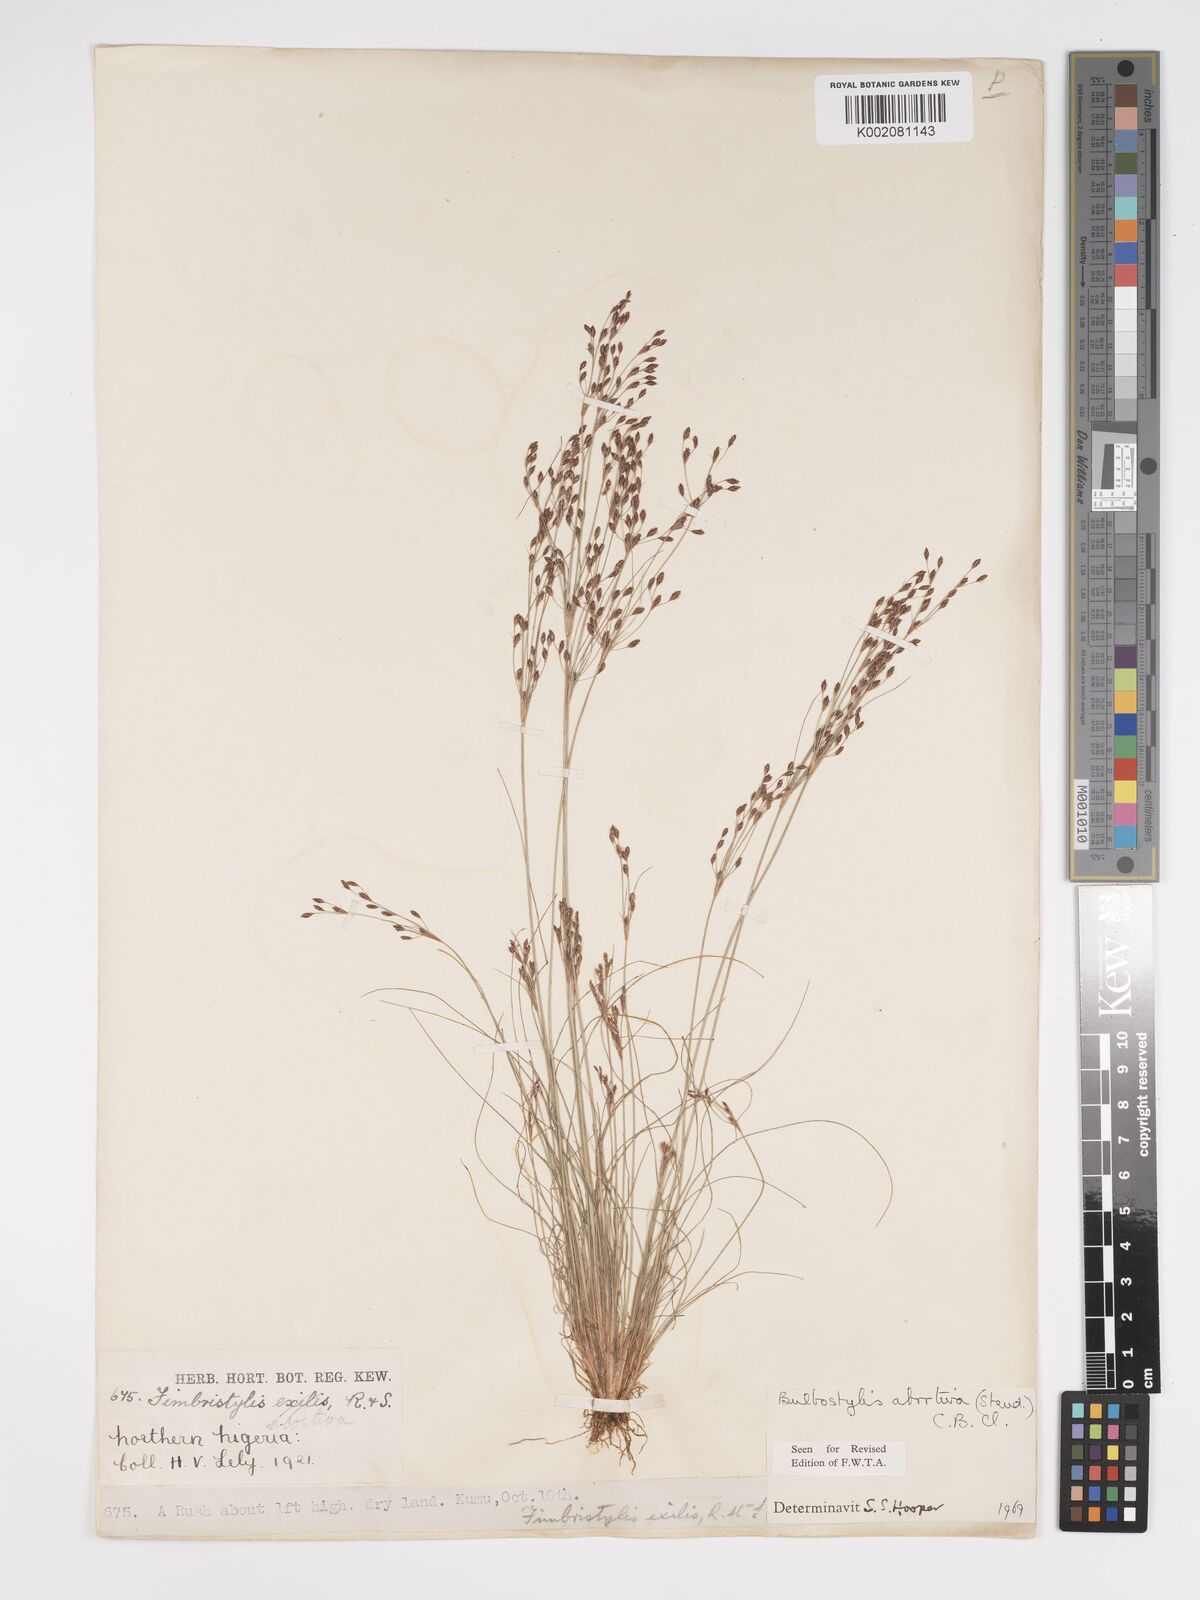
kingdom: Plantae
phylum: Tracheophyta
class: Liliopsida
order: Poales
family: Cyperaceae
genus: Bulbostylis
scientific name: Bulbostylis abortiva
